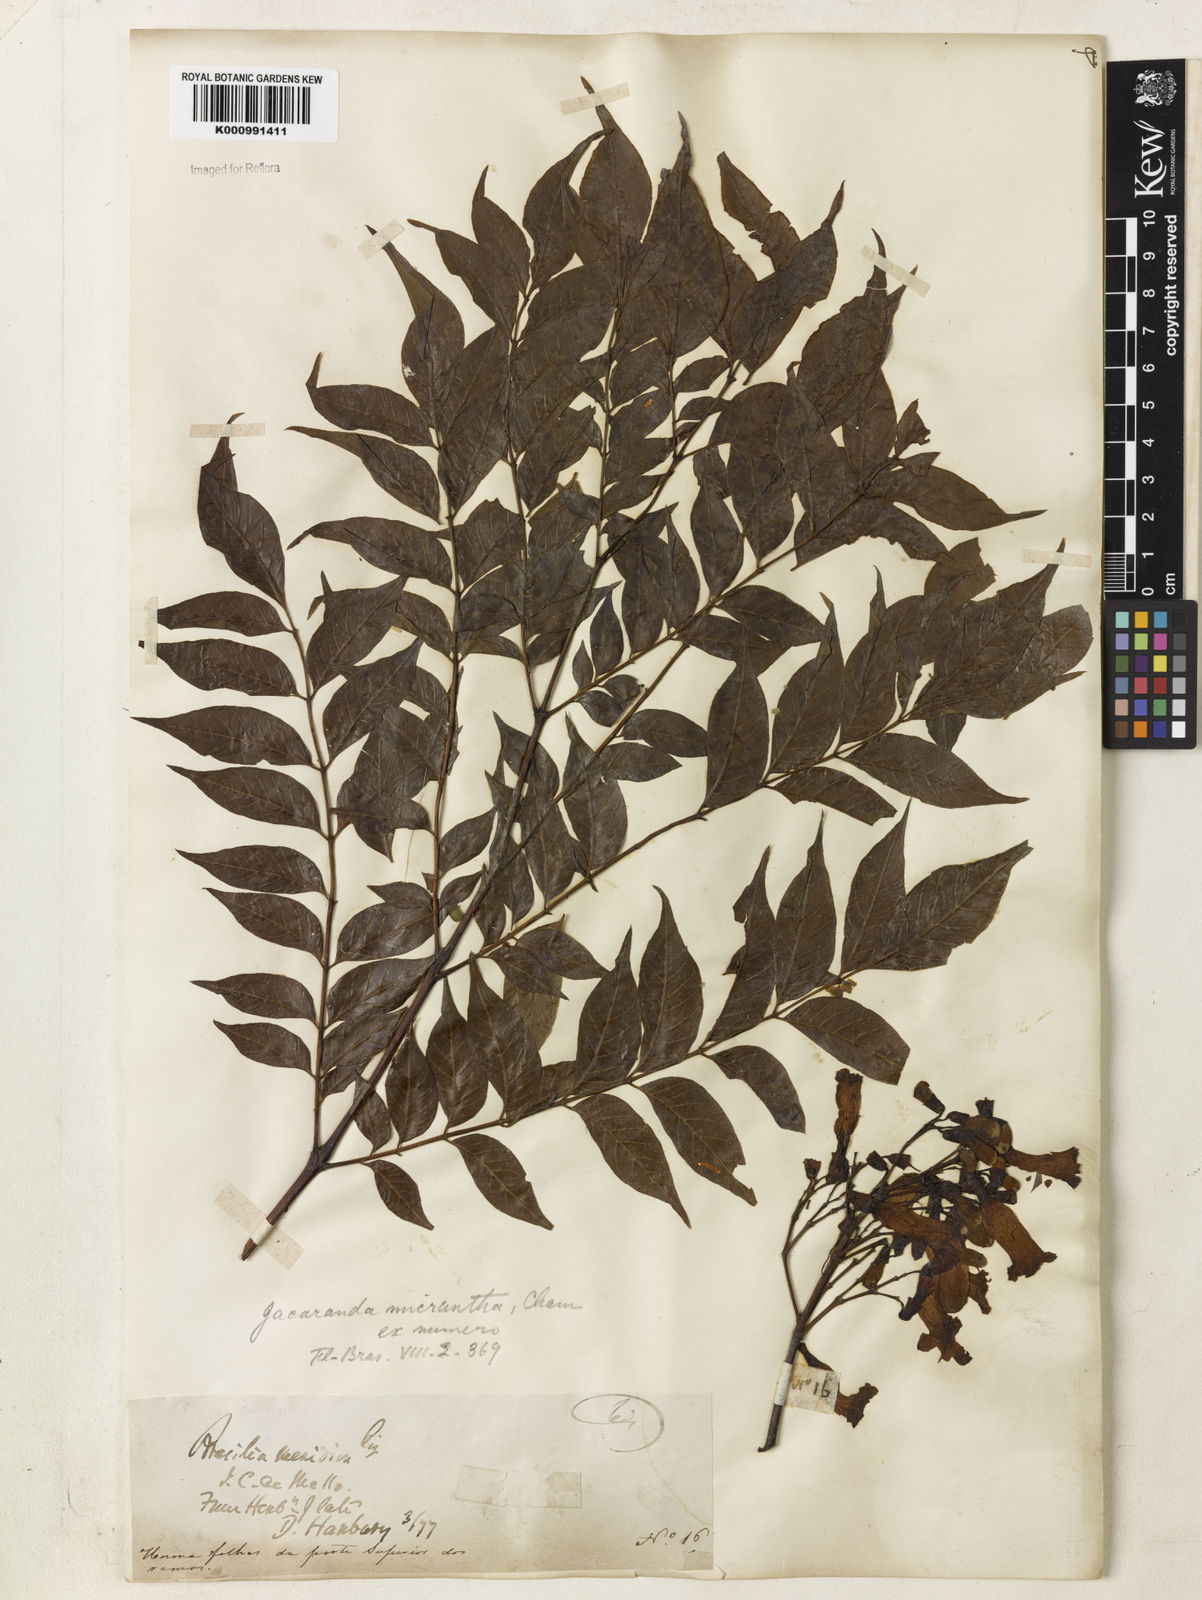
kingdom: Plantae
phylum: Tracheophyta
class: Magnoliopsida
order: Lamiales
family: Bignoniaceae
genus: Jacaranda
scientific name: Jacaranda micrantha
